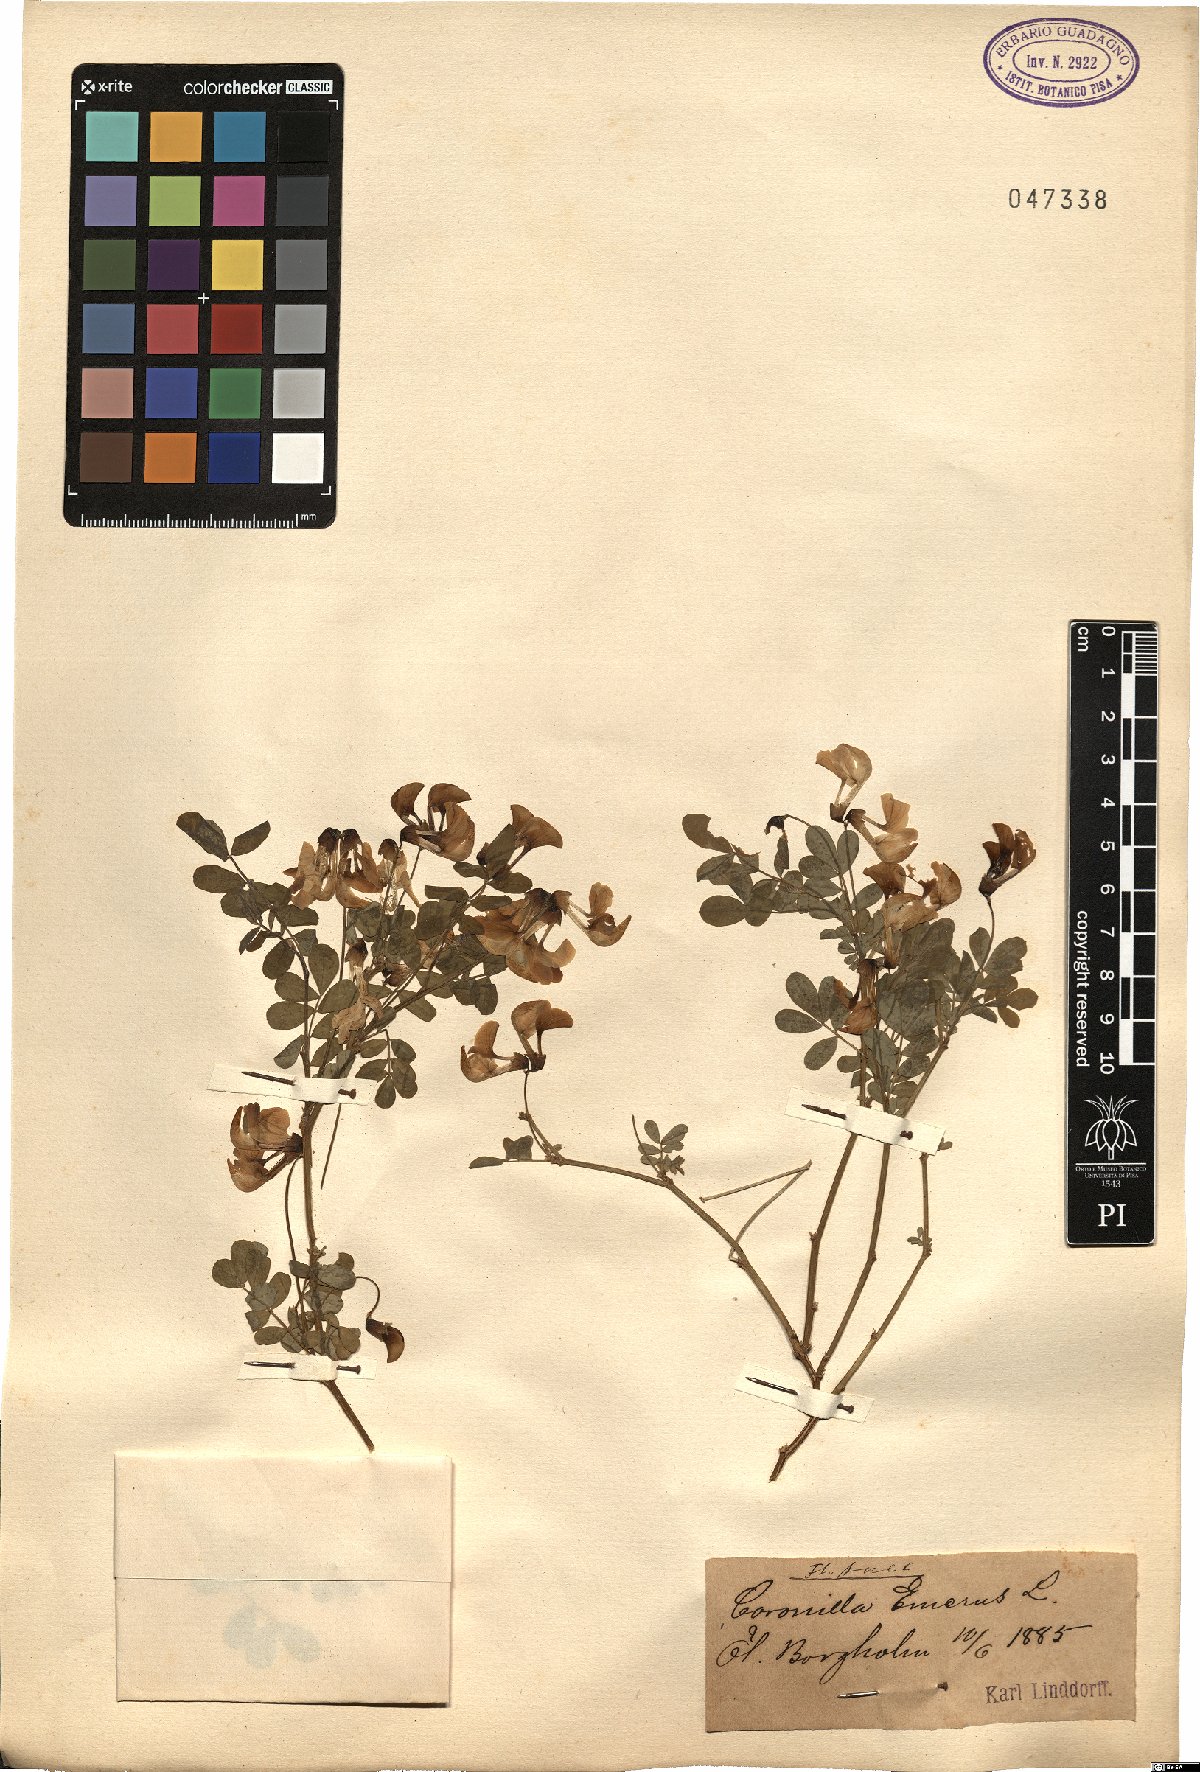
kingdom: Plantae
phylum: Tracheophyta
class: Magnoliopsida
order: Fabales
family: Fabaceae
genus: Hippocrepis
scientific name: Hippocrepis emerus
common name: Scorpion senna
